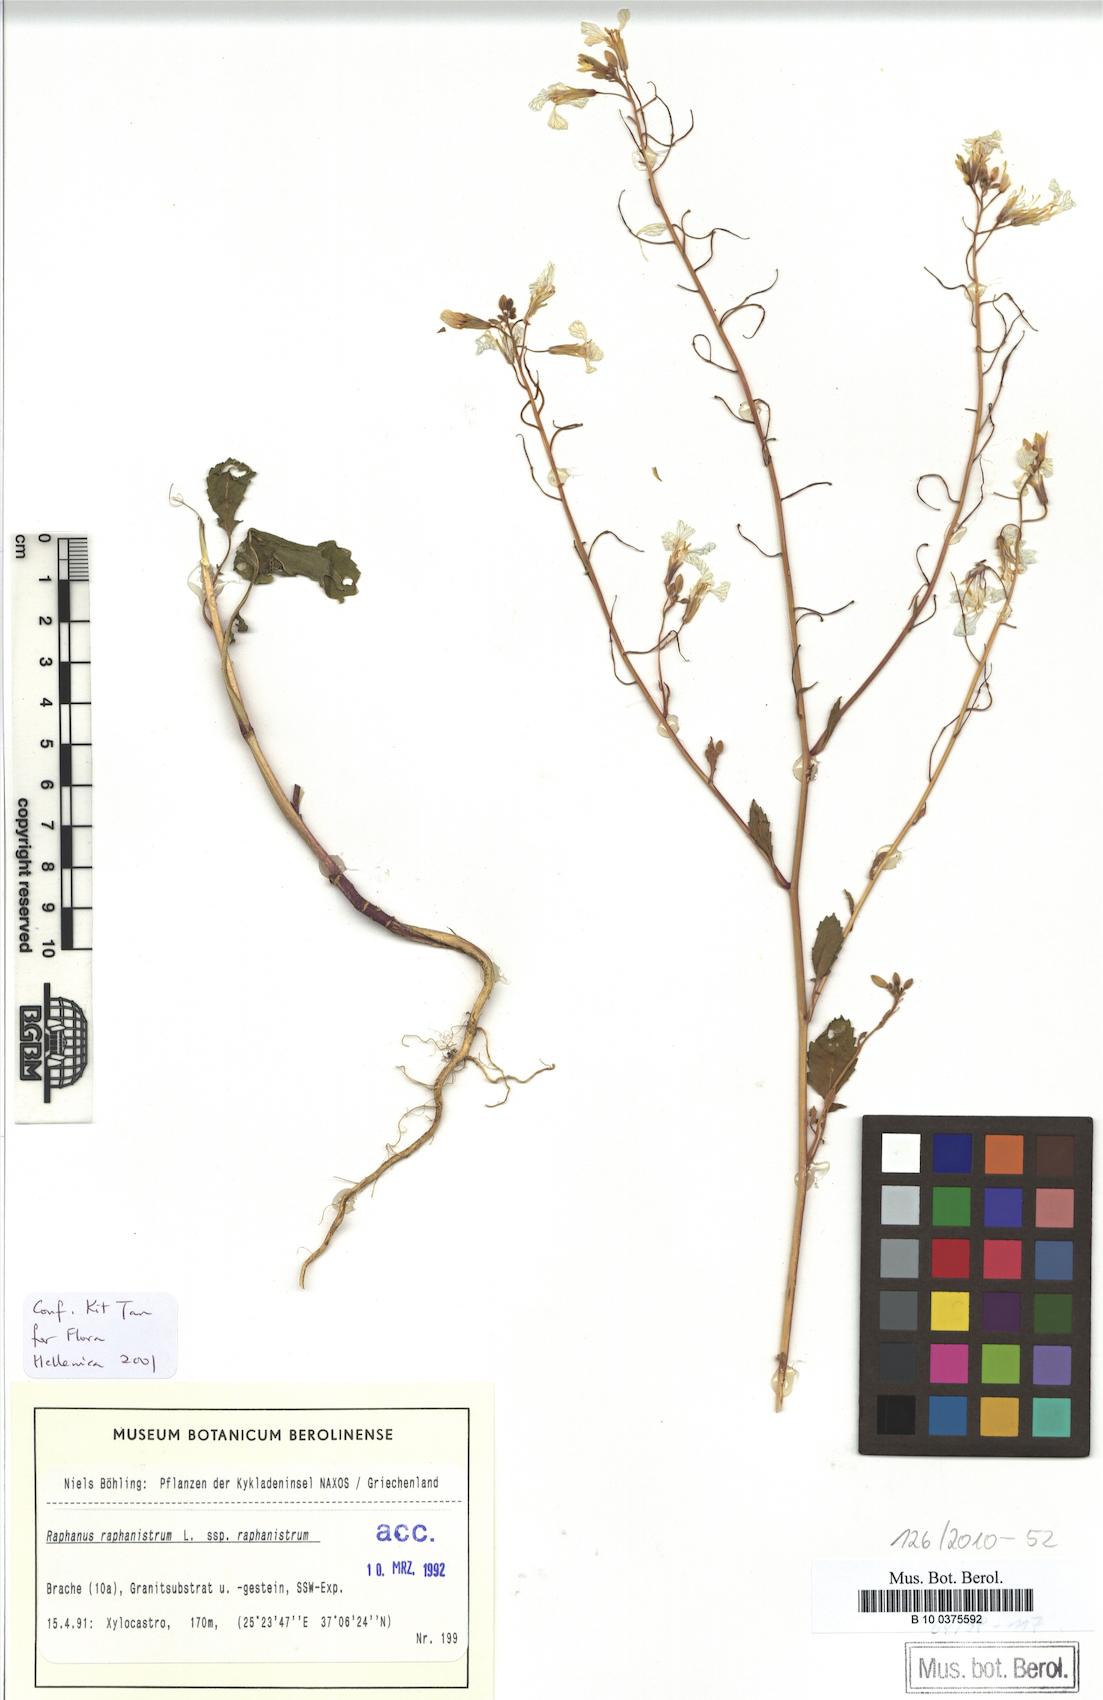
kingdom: Plantae
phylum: Tracheophyta
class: Magnoliopsida
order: Brassicales
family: Brassicaceae
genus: Raphanus
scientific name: Raphanus raphanistrum
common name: Wild radish
